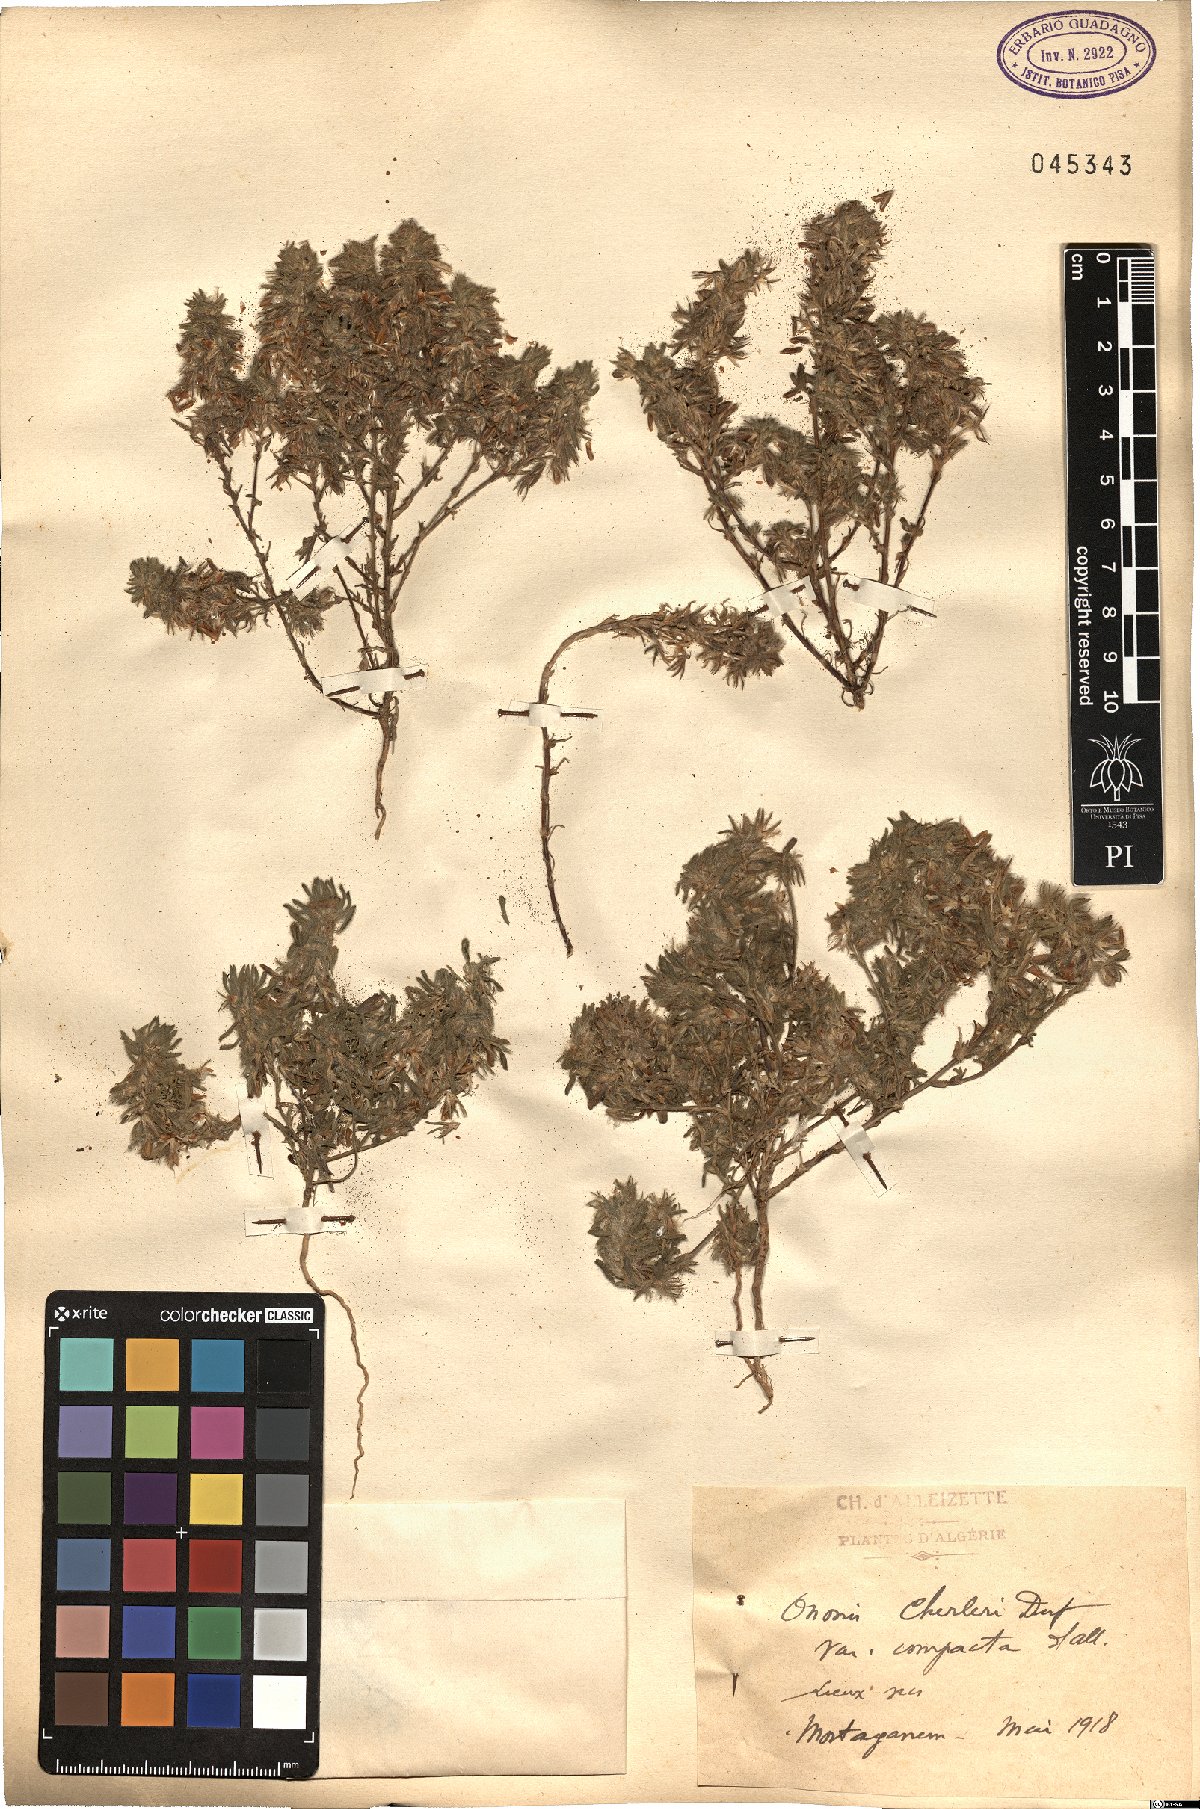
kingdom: Plantae
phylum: Tracheophyta
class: Magnoliopsida
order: Fabales
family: Fabaceae
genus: Ononis
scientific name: Ononis
